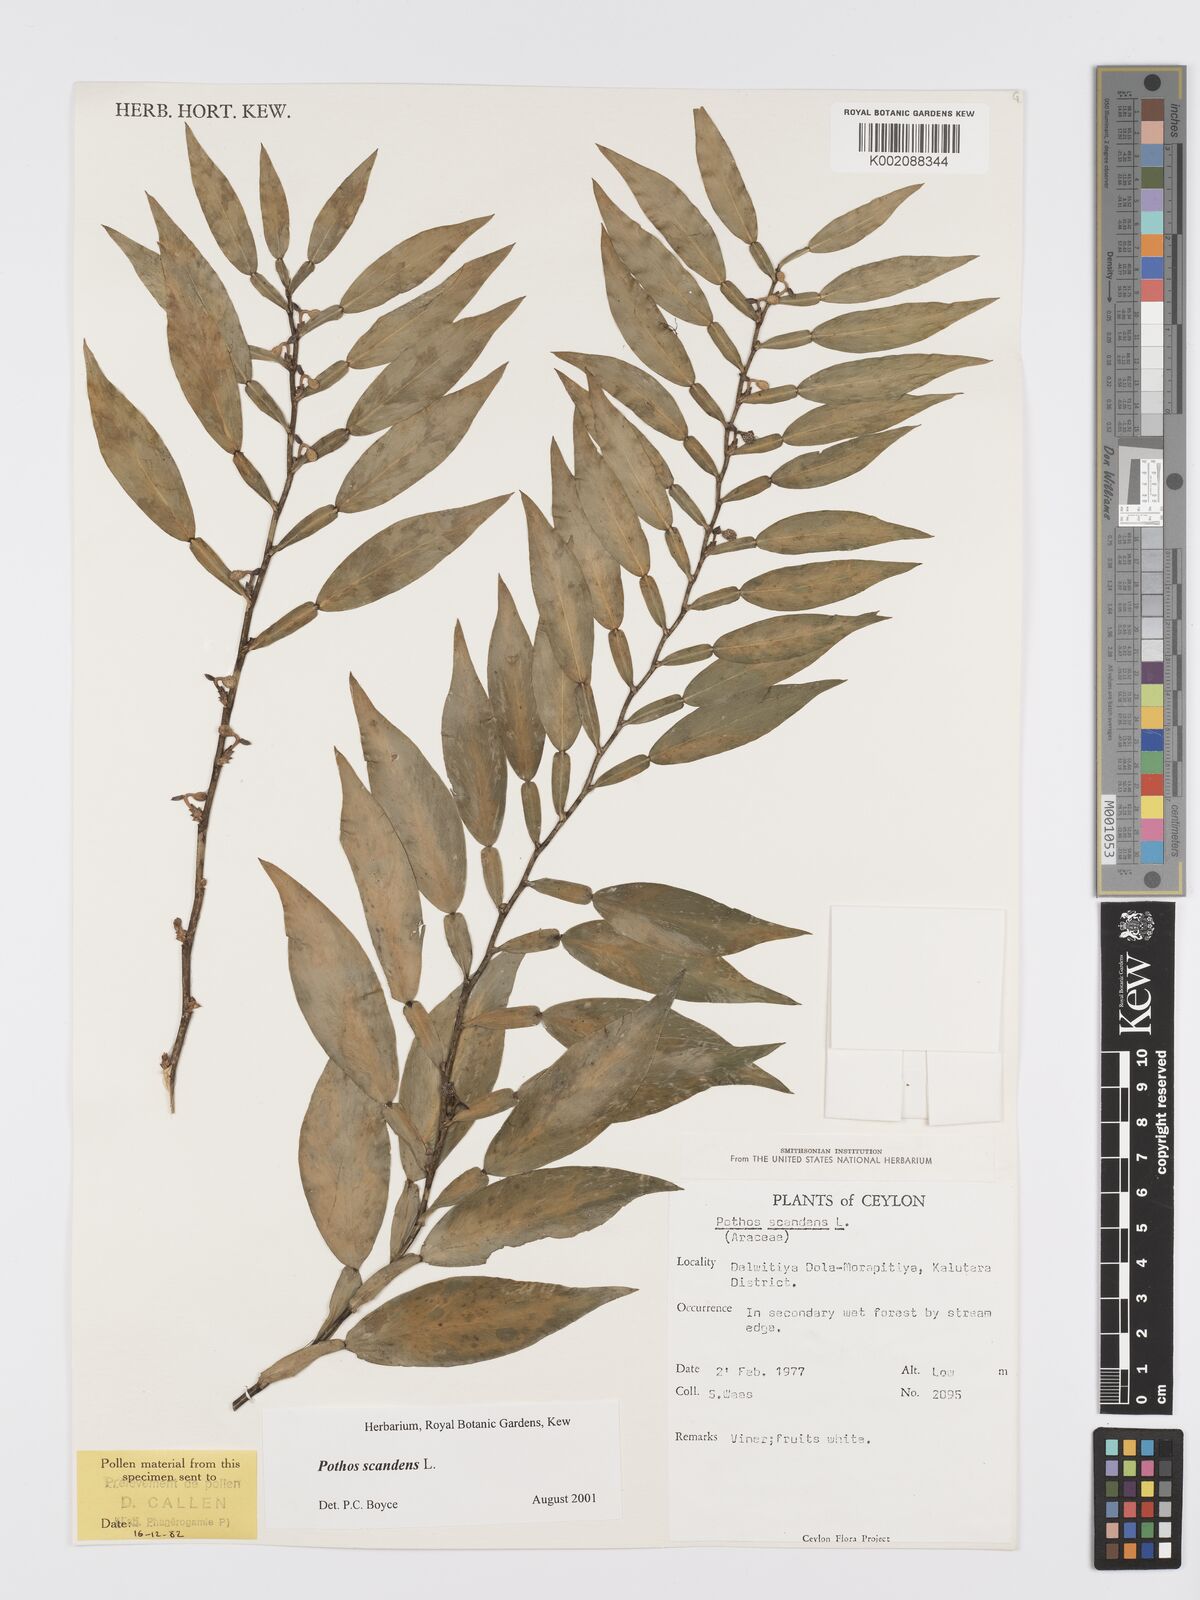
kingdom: Plantae
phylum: Tracheophyta
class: Liliopsida
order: Alismatales
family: Araceae
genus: Pothos
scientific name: Pothos scandens
